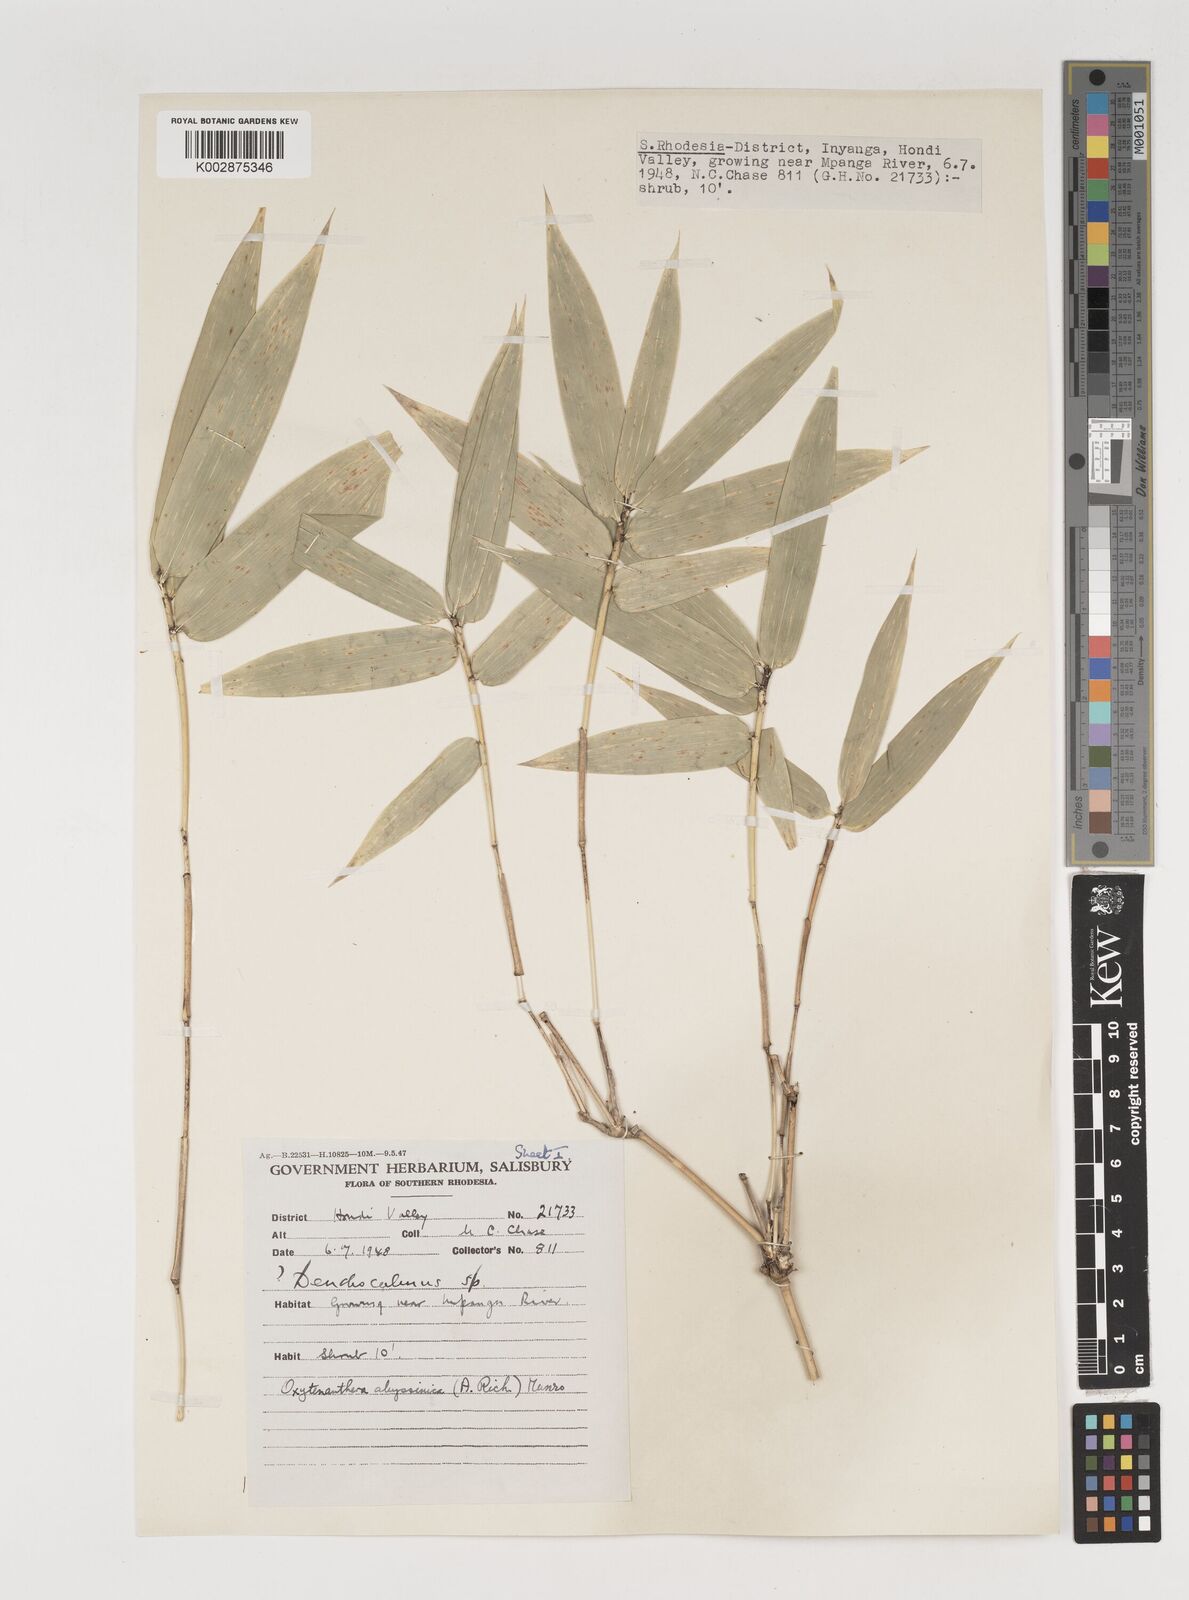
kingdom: Plantae
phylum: Tracheophyta
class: Liliopsida
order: Poales
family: Poaceae
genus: Oxytenanthera
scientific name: Oxytenanthera abyssinica
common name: Wine bamboo
